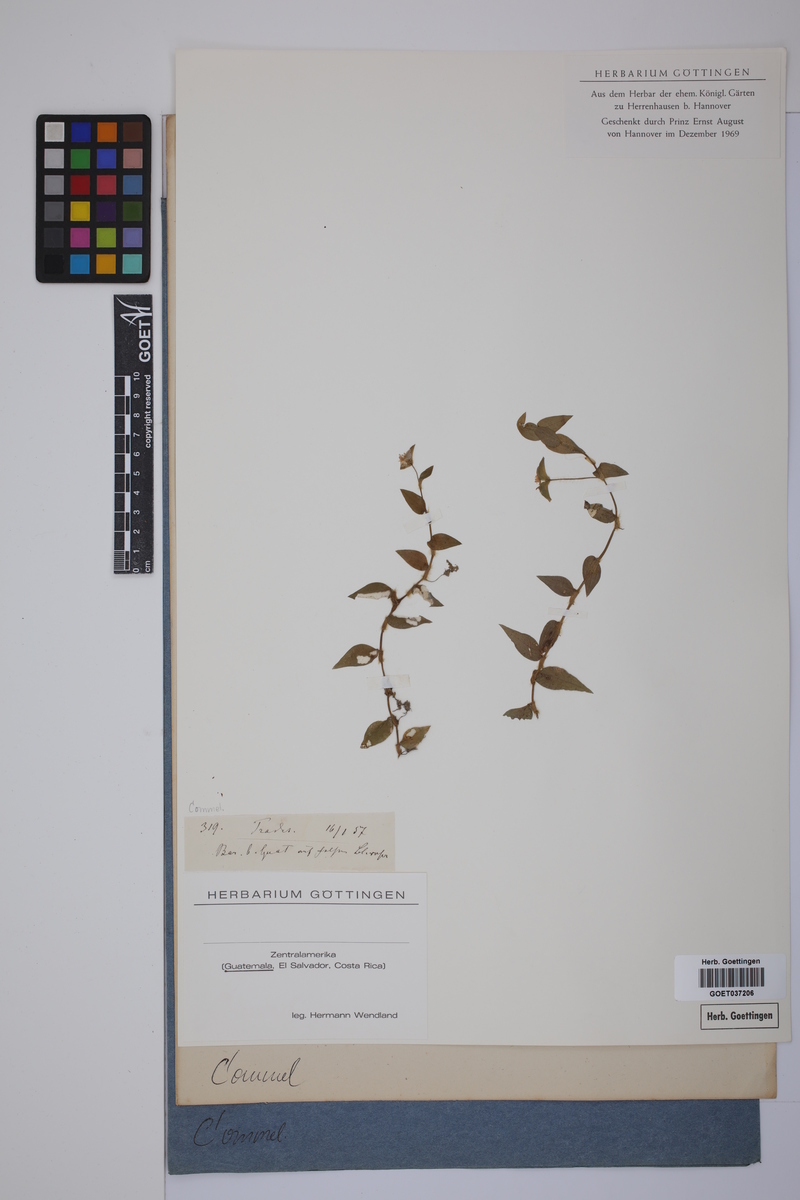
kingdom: Plantae
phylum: Tracheophyta
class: Liliopsida
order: Commelinales
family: Commelinaceae
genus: Tradescantia
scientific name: Tradescantia
